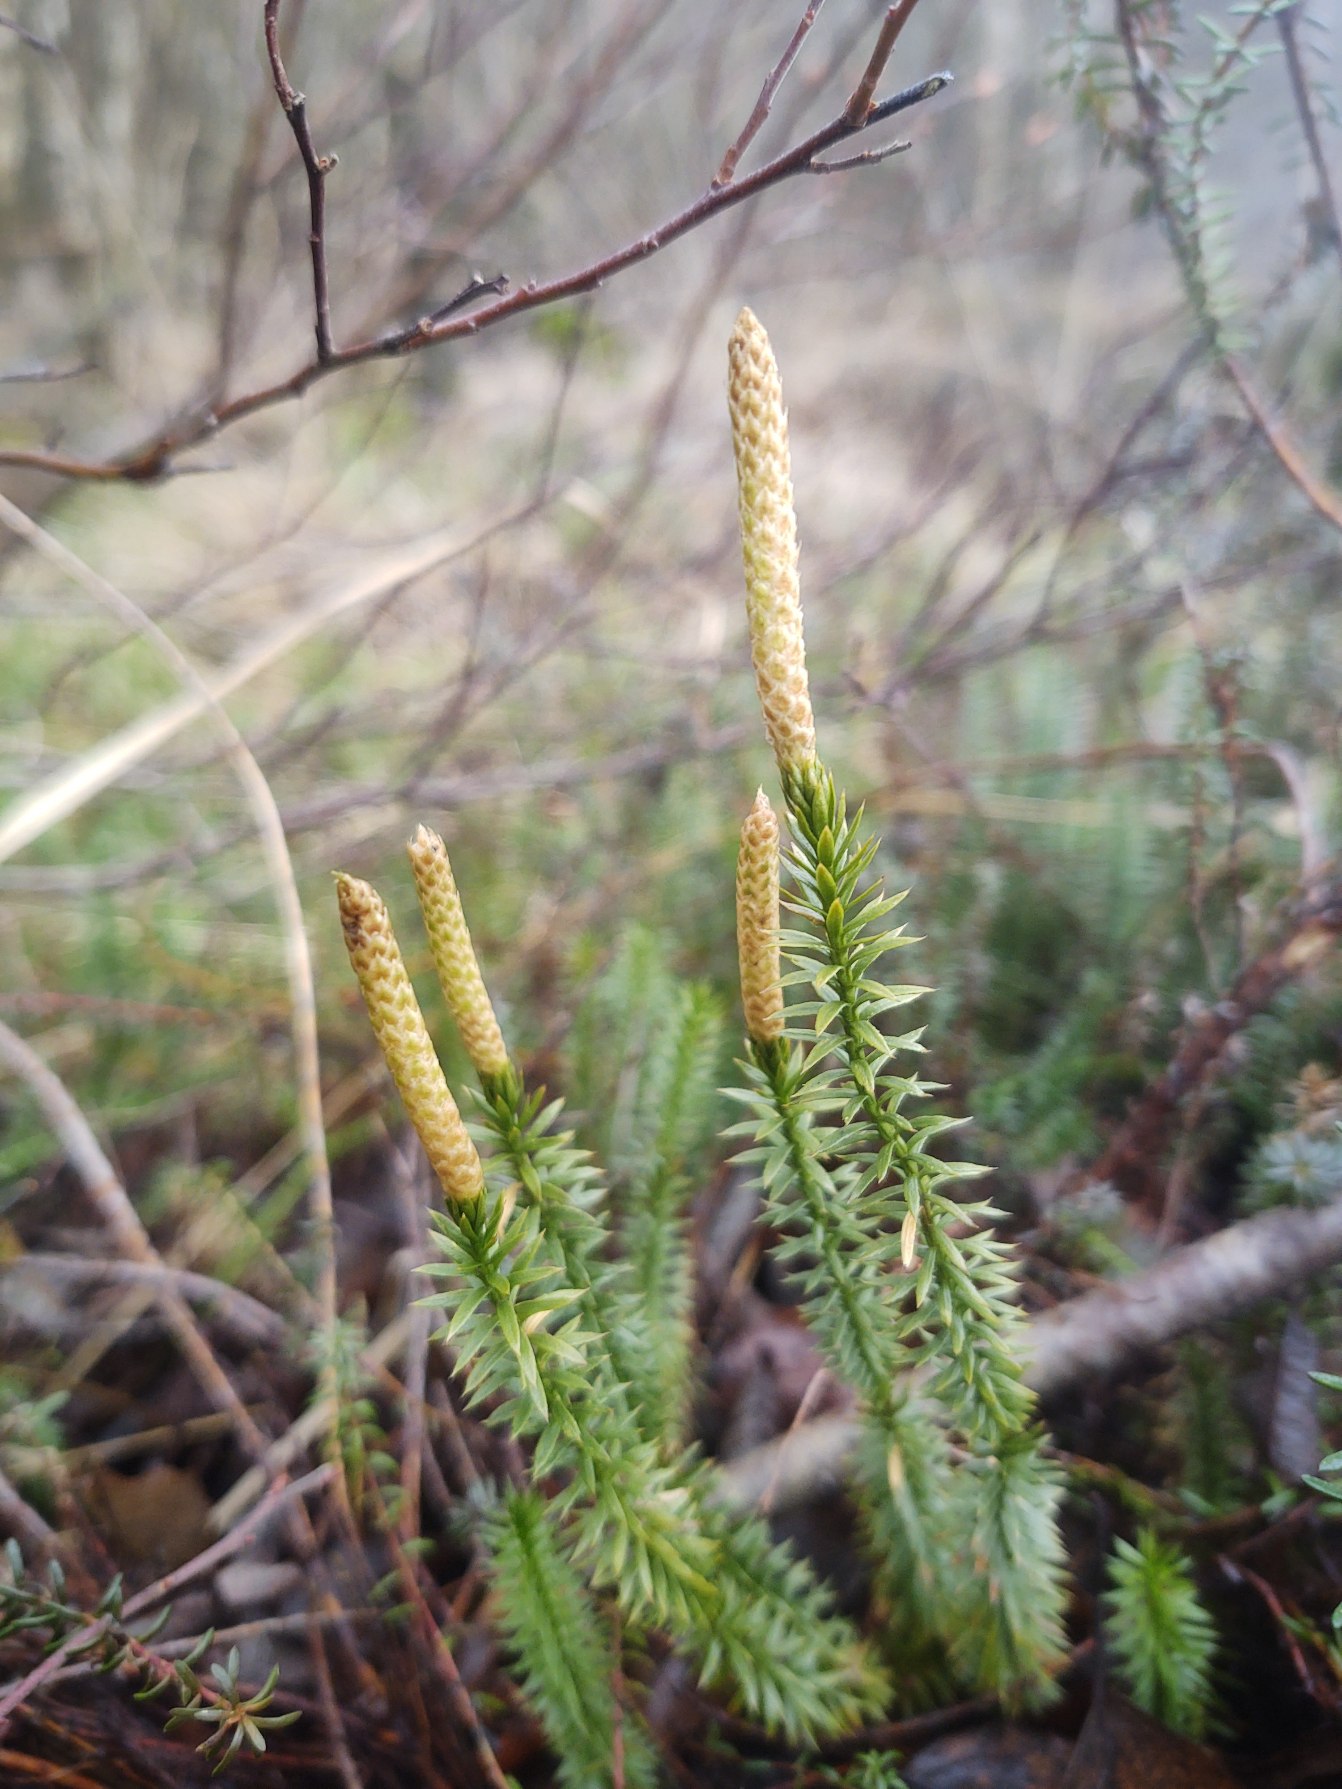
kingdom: Plantae
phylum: Tracheophyta
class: Lycopodiopsida
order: Lycopodiales
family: Lycopodiaceae
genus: Spinulum
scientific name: Spinulum annotinum
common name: Femradet ulvefod
